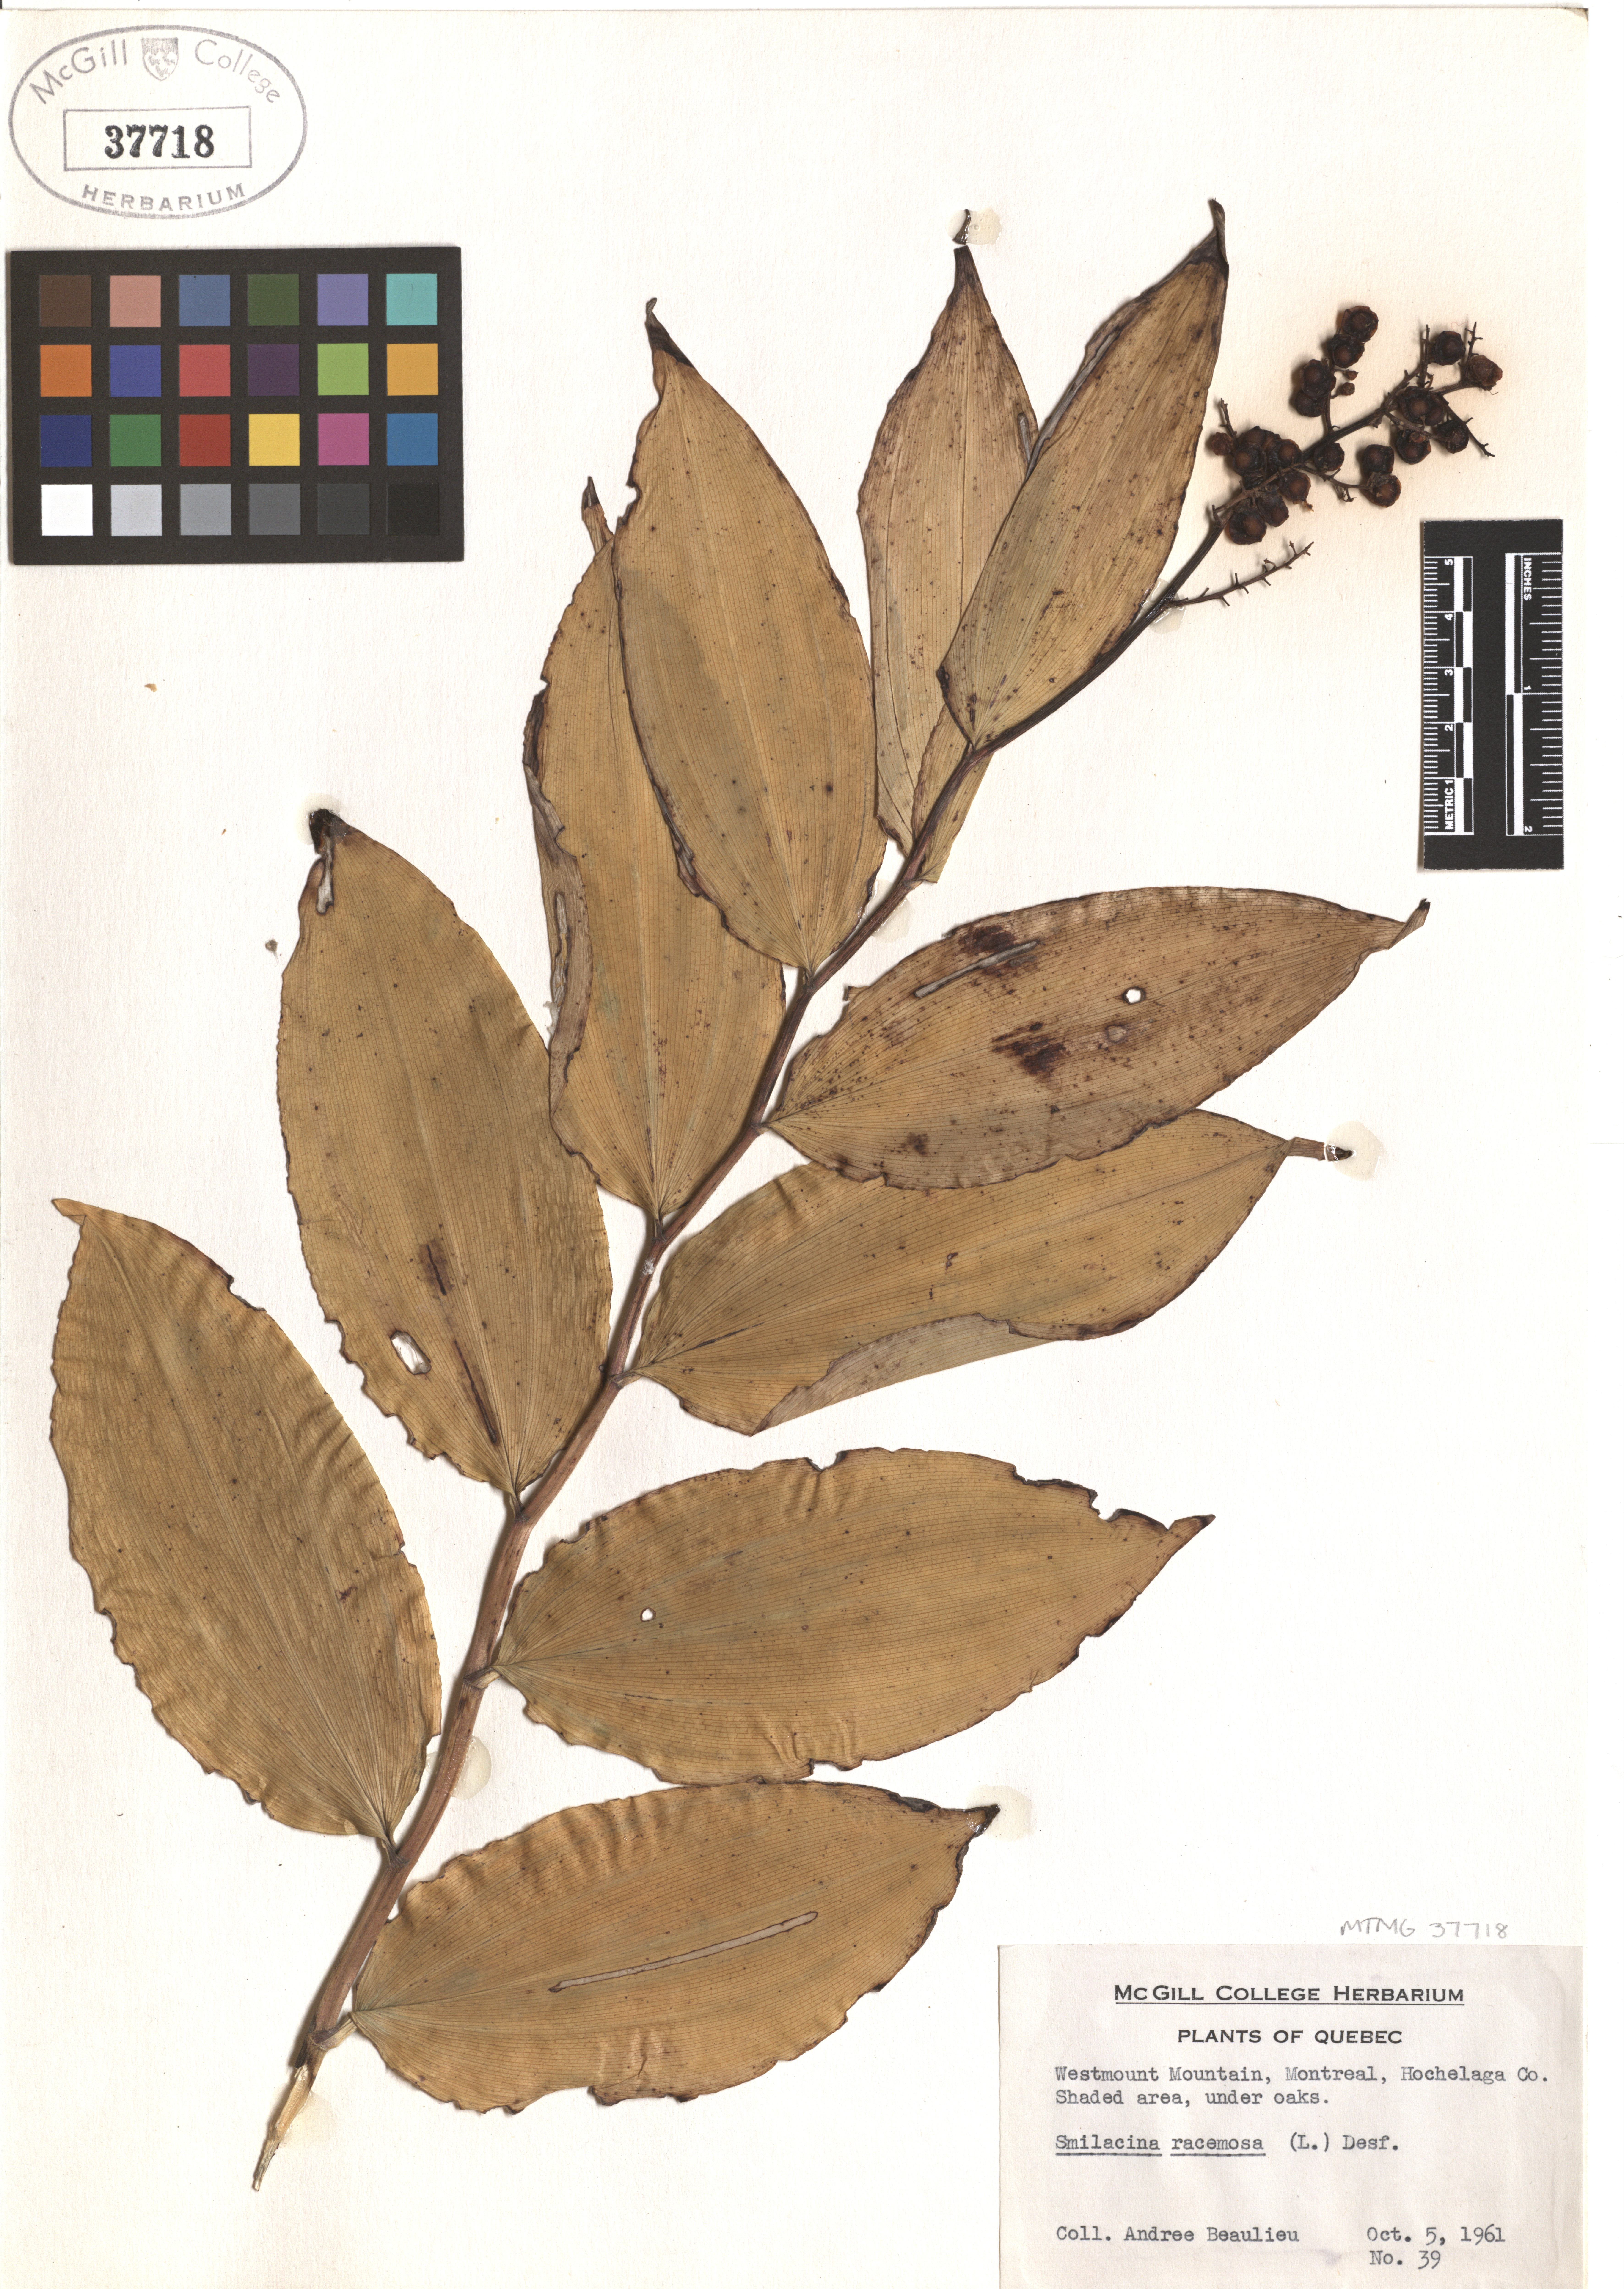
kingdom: Plantae
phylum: Tracheophyta
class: Liliopsida
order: Asparagales
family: Asparagaceae
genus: Maianthemum
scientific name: Maianthemum racemosum
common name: False spikenard
